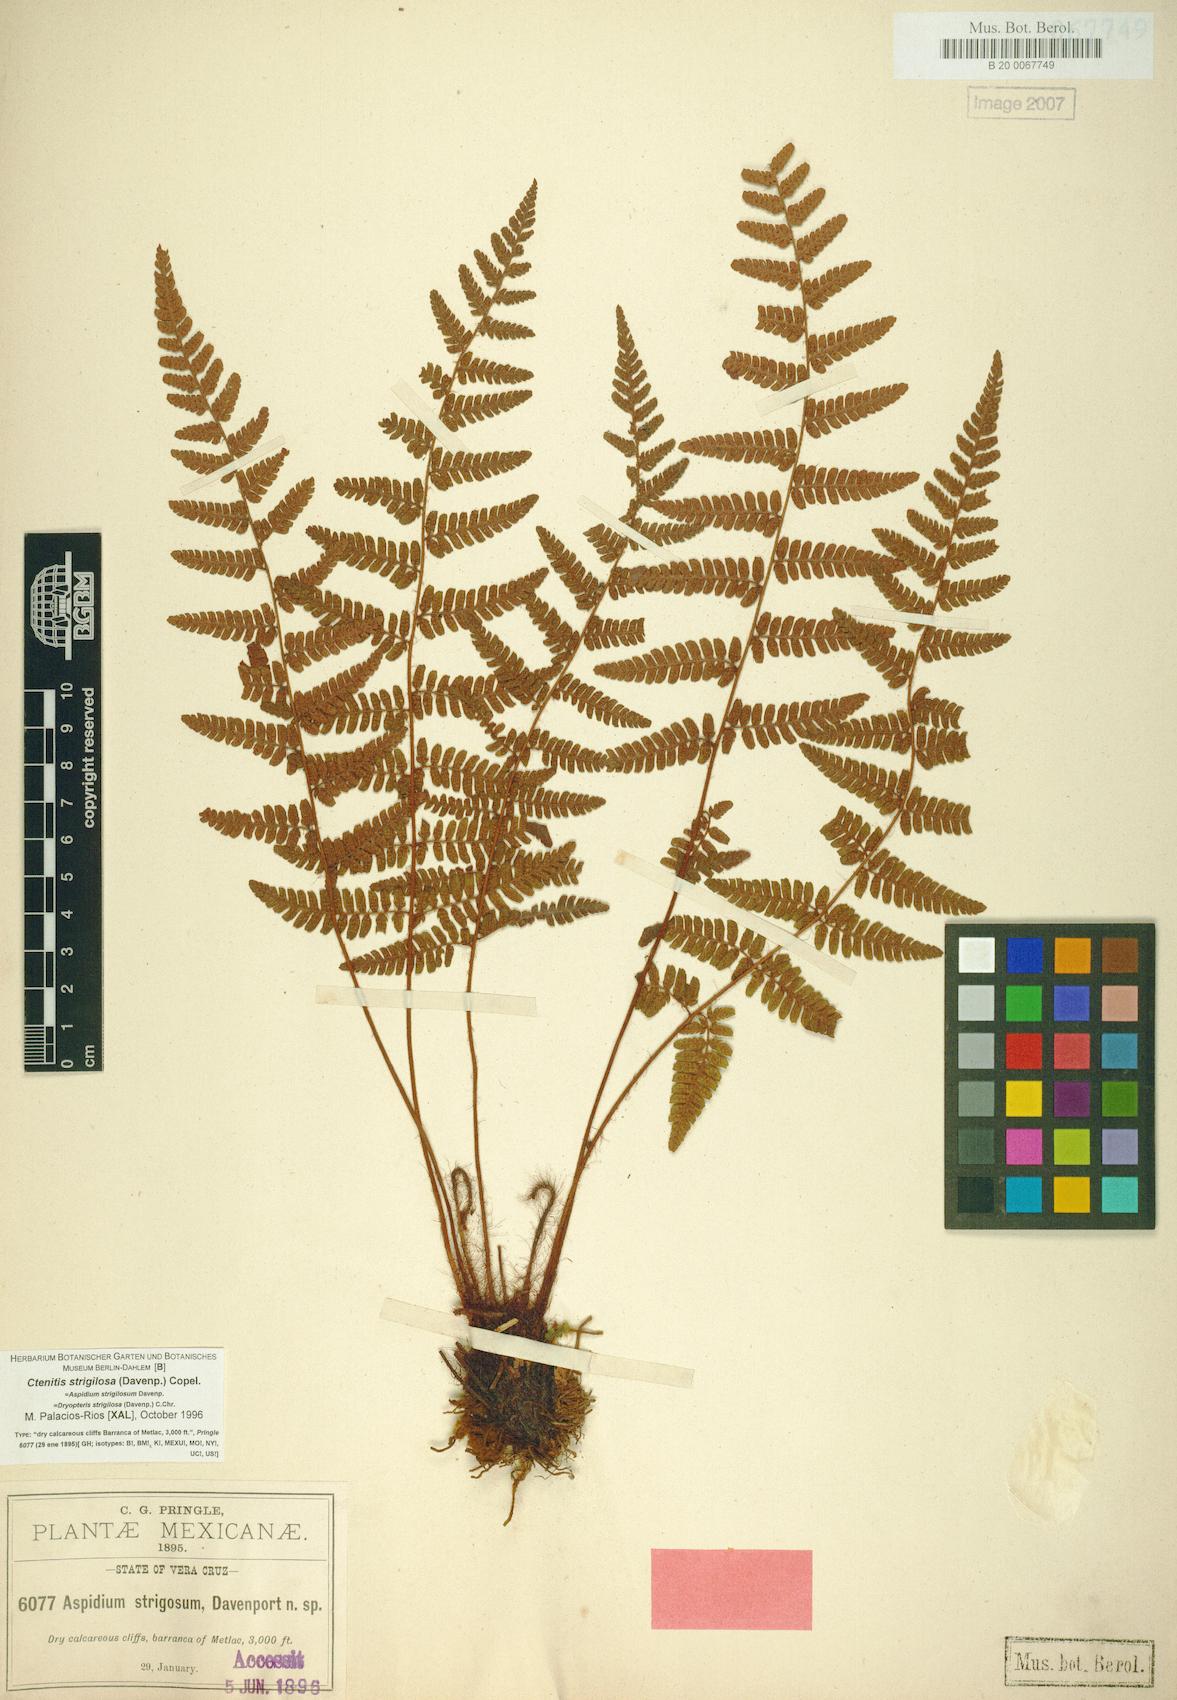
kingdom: Plantae
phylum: Tracheophyta
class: Polypodiopsida
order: Polypodiales
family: Dryopteridaceae
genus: Ctenitis
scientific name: Ctenitis strigilosa
